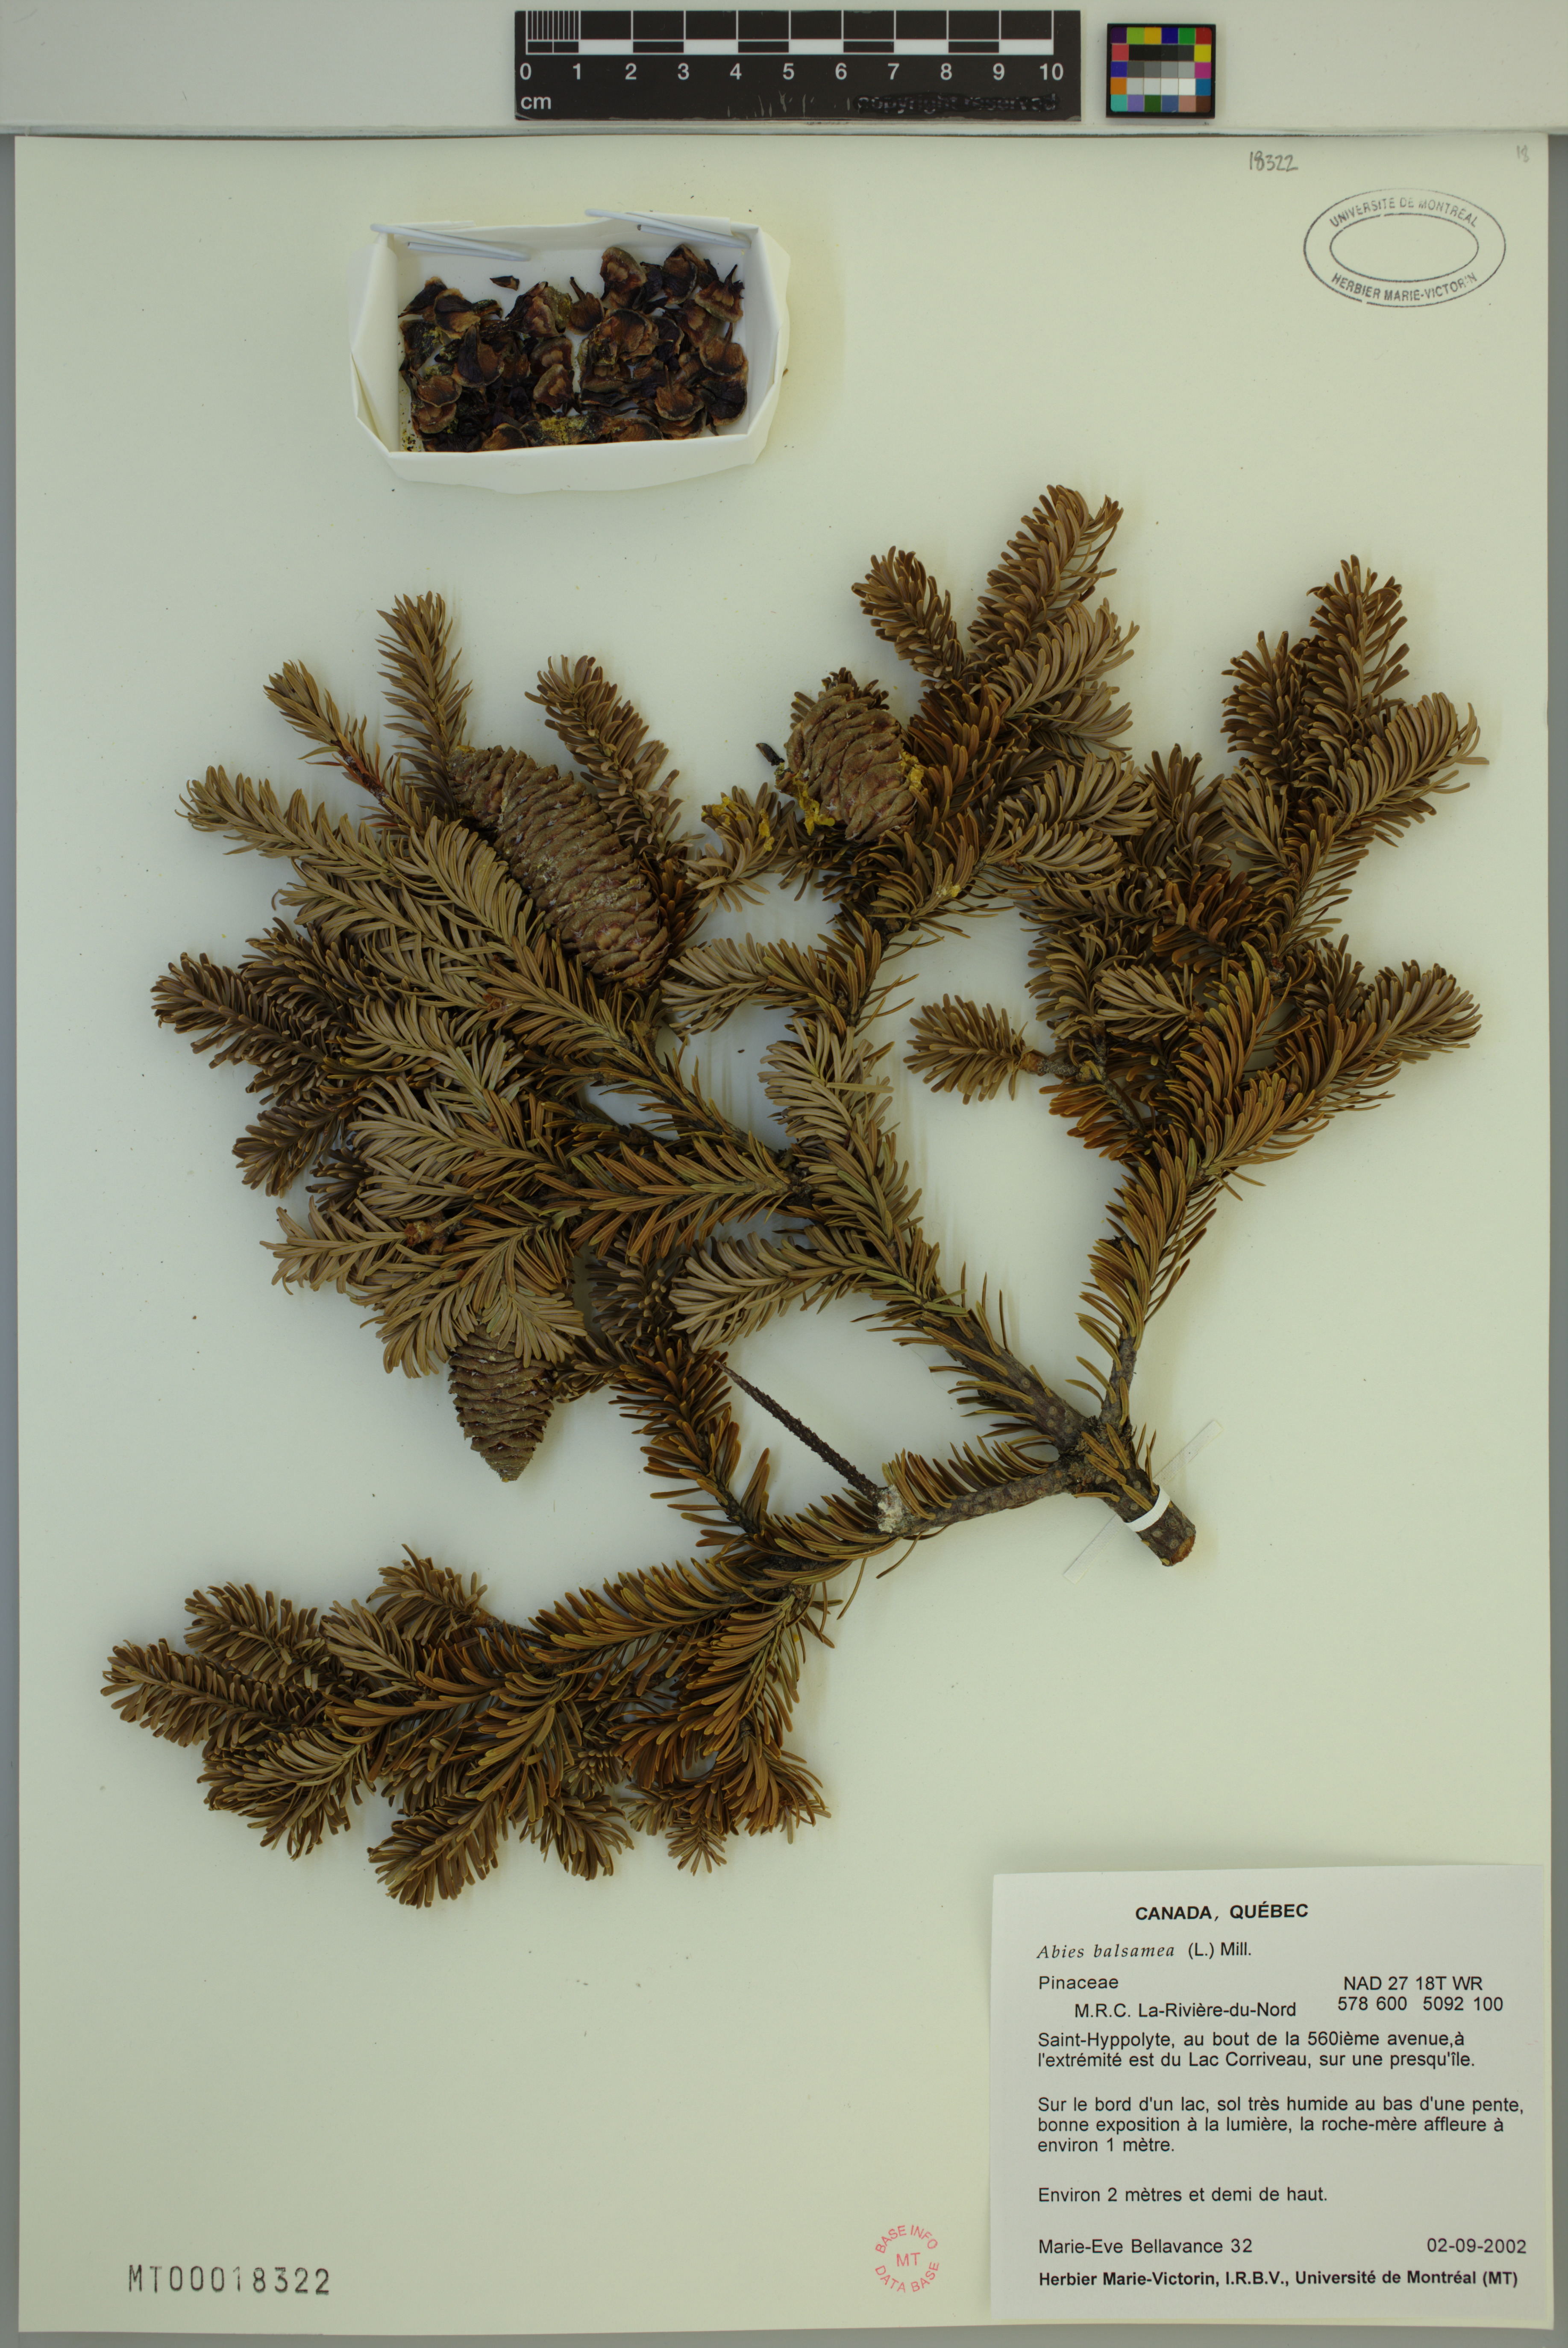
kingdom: Plantae
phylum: Tracheophyta
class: Pinopsida
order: Pinales
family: Pinaceae
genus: Abies
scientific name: Abies balsamea
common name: Balsam fir
